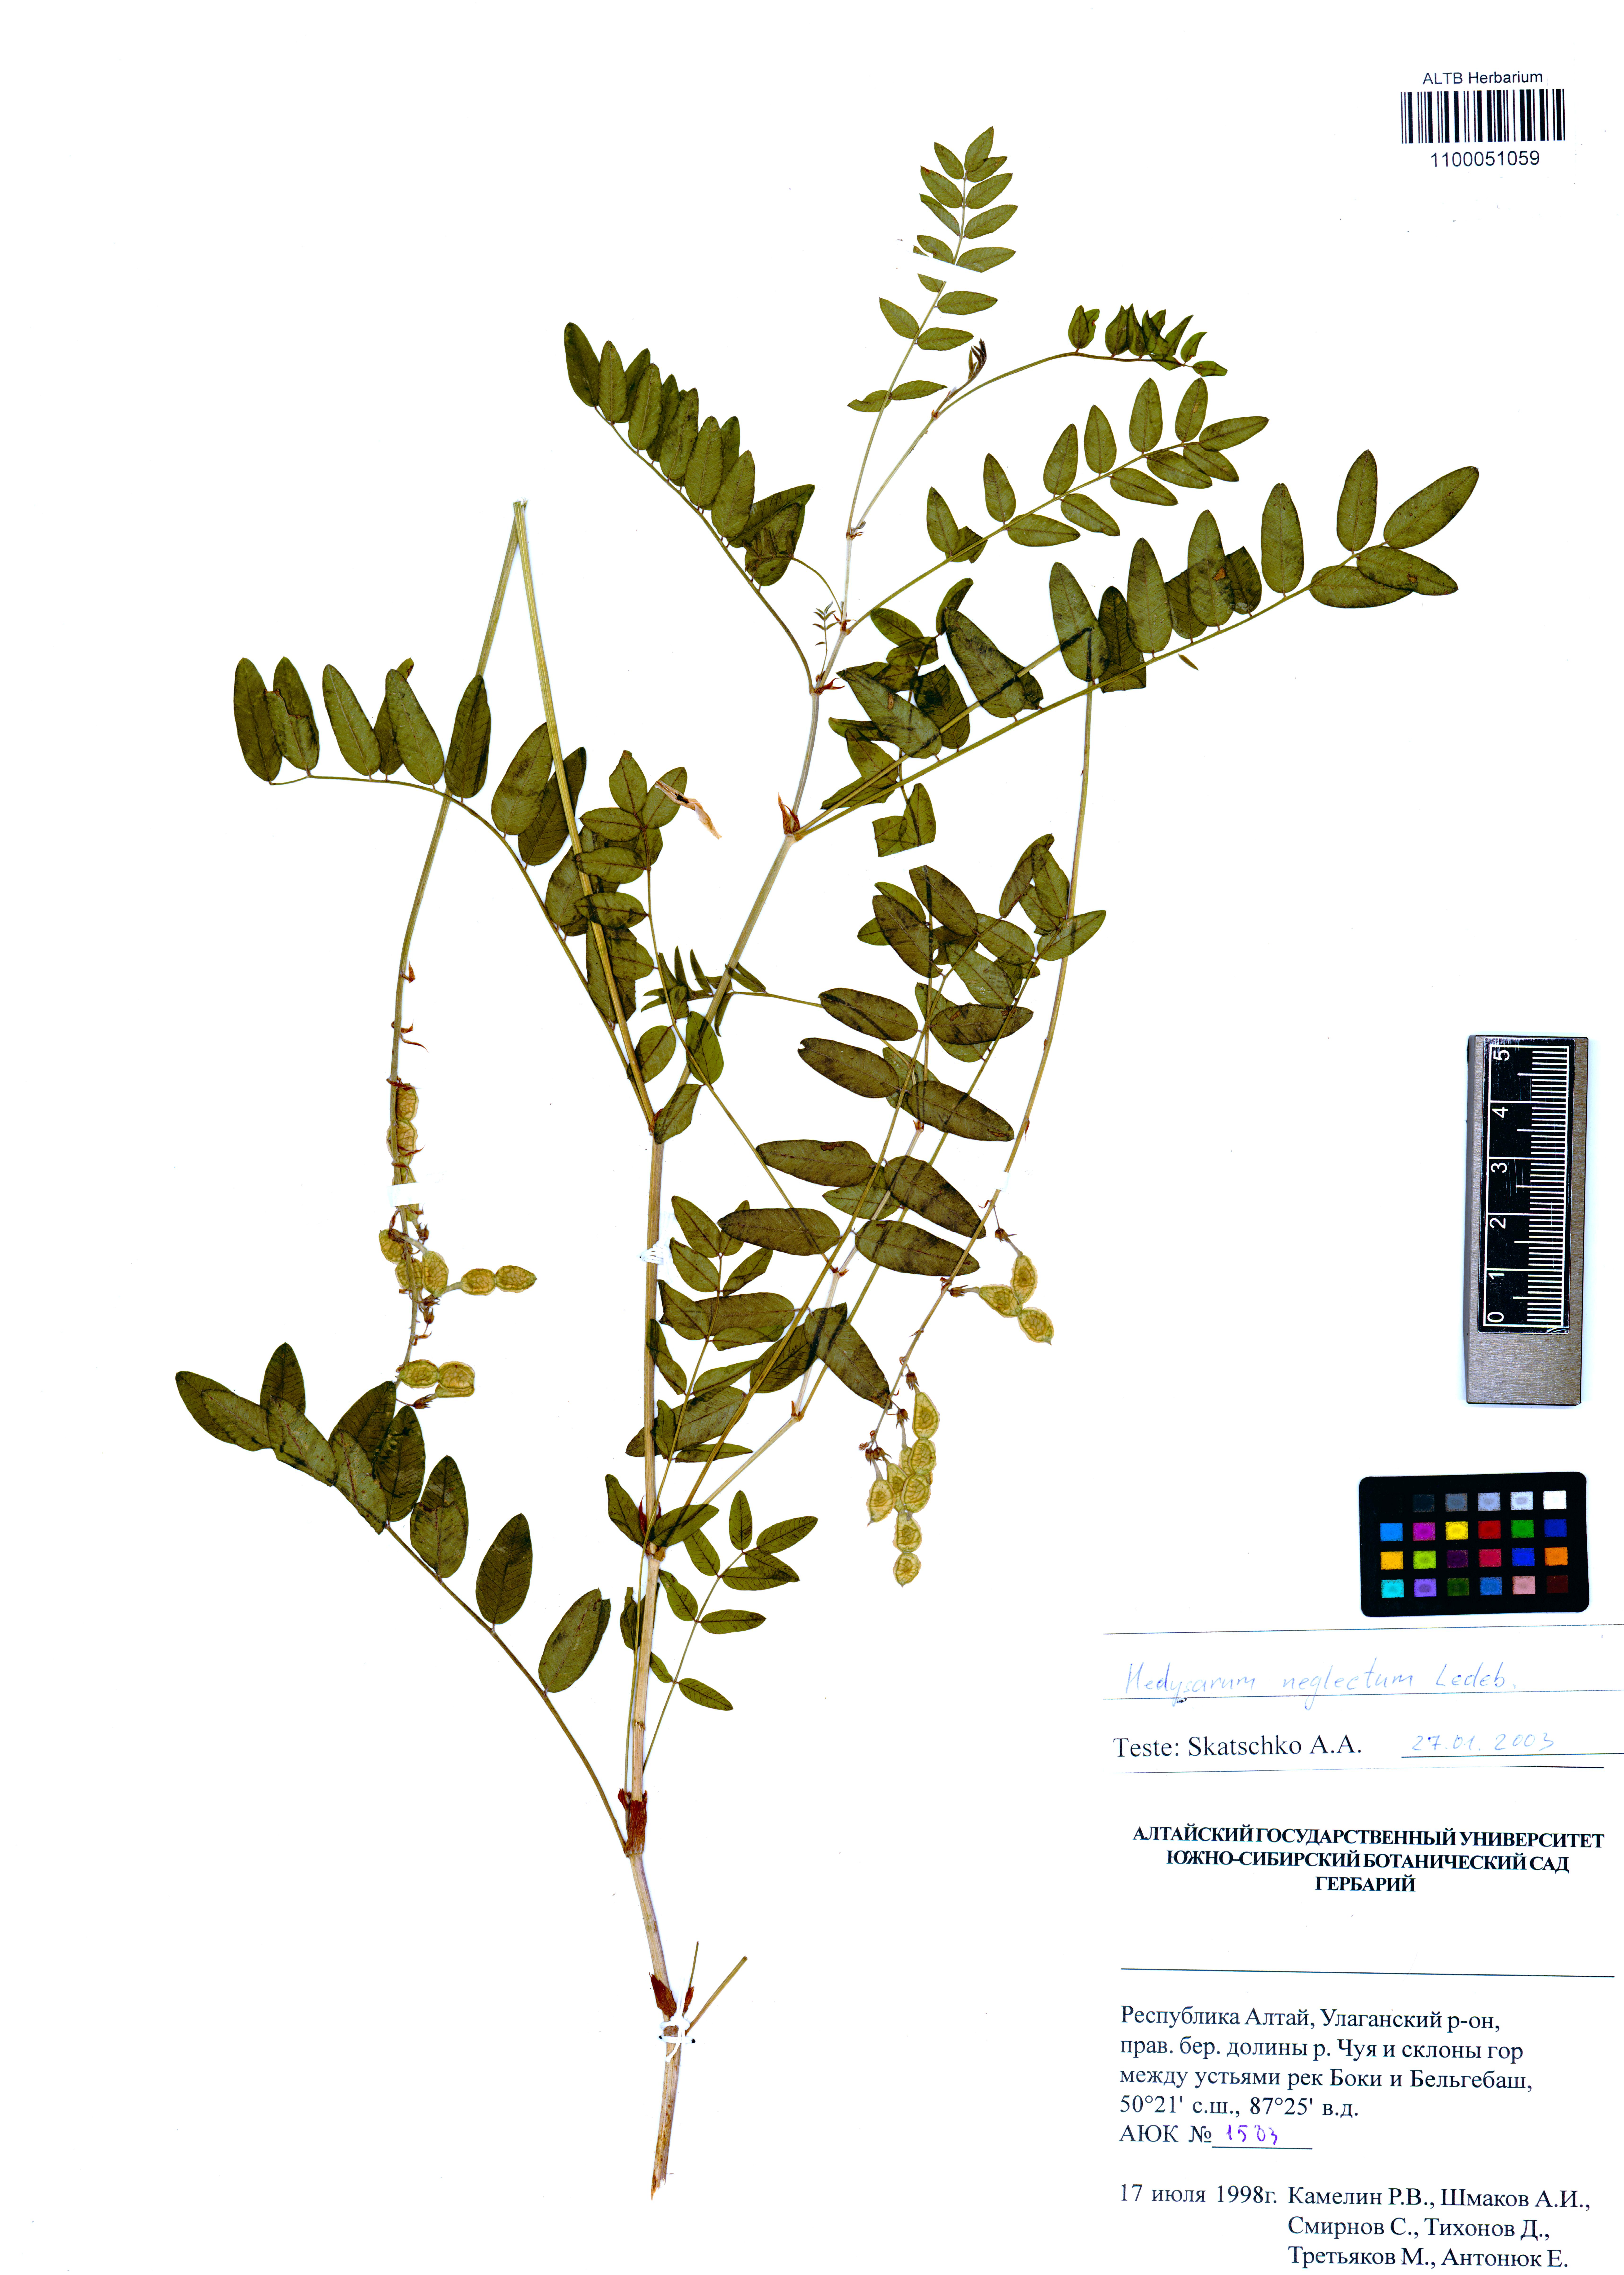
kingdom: Plantae
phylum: Tracheophyta
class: Magnoliopsida
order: Fabales
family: Fabaceae
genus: Hedysarum
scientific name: Hedysarum neglectum
